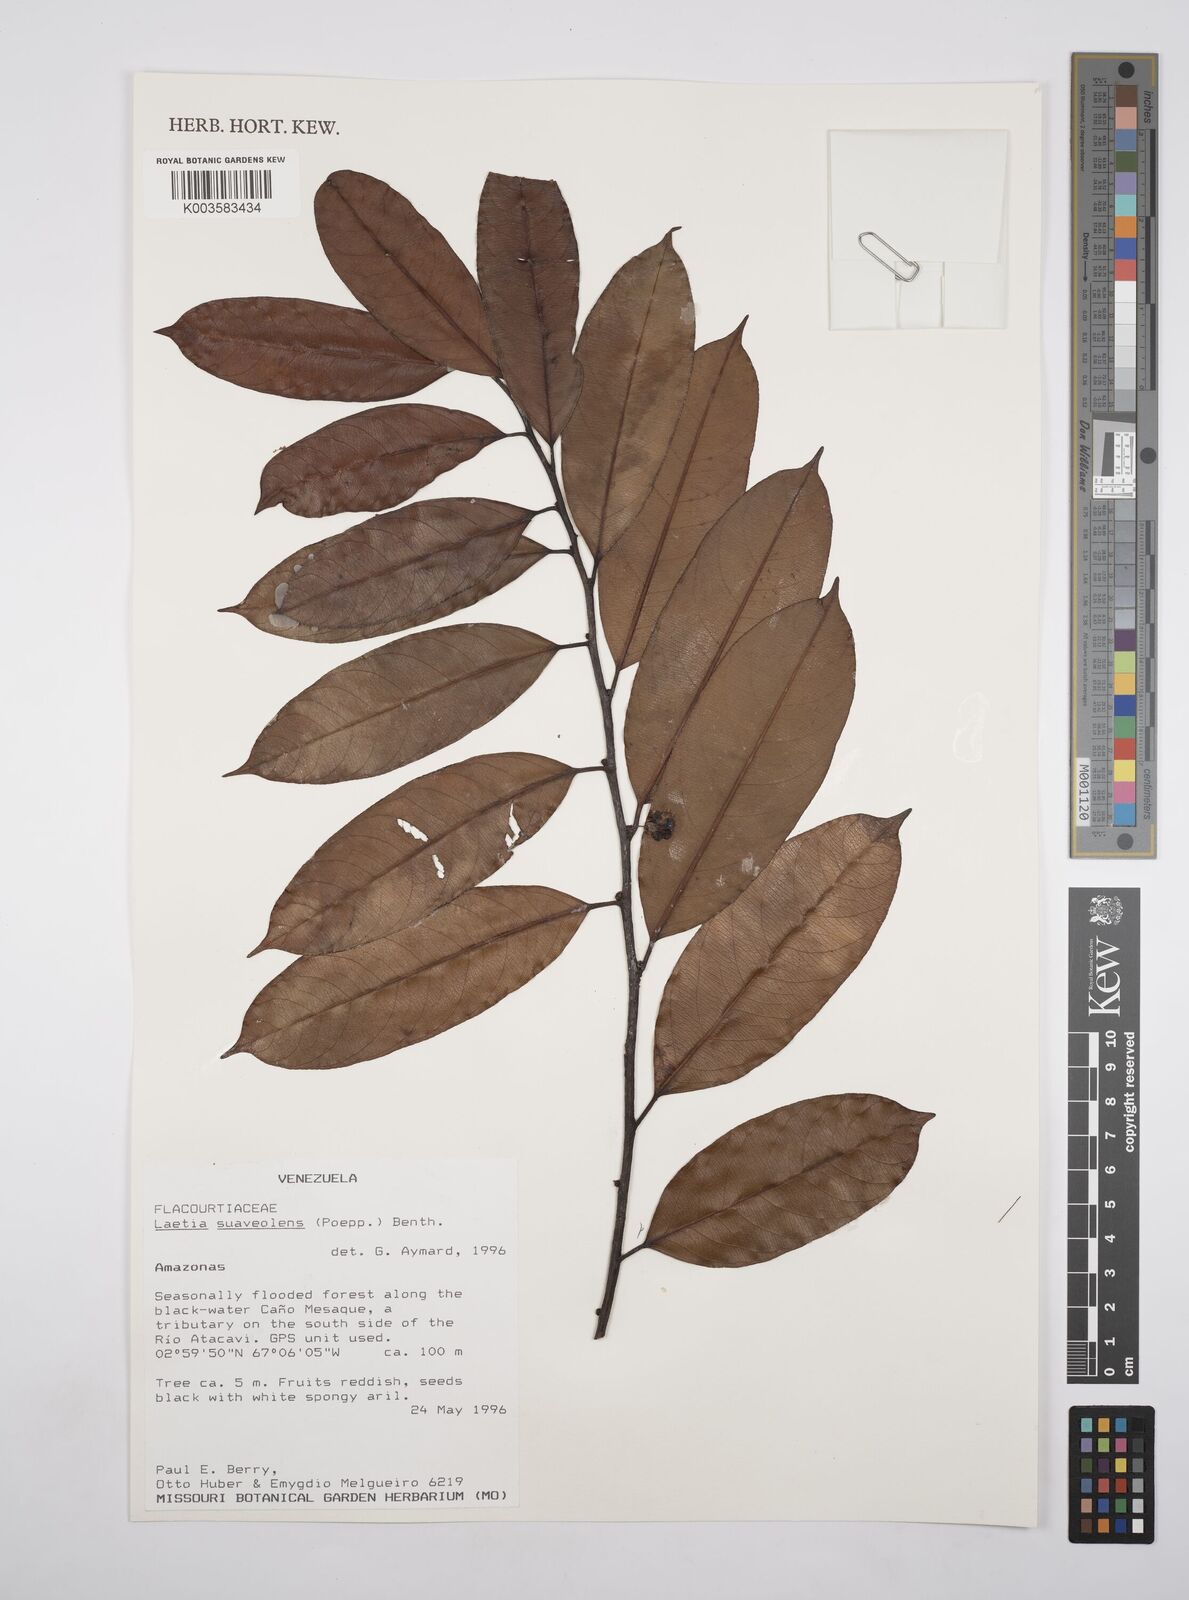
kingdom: Plantae
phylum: Tracheophyta
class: Magnoliopsida
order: Malpighiales
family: Salicaceae
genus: Casearia
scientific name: Casearia suaveolens
